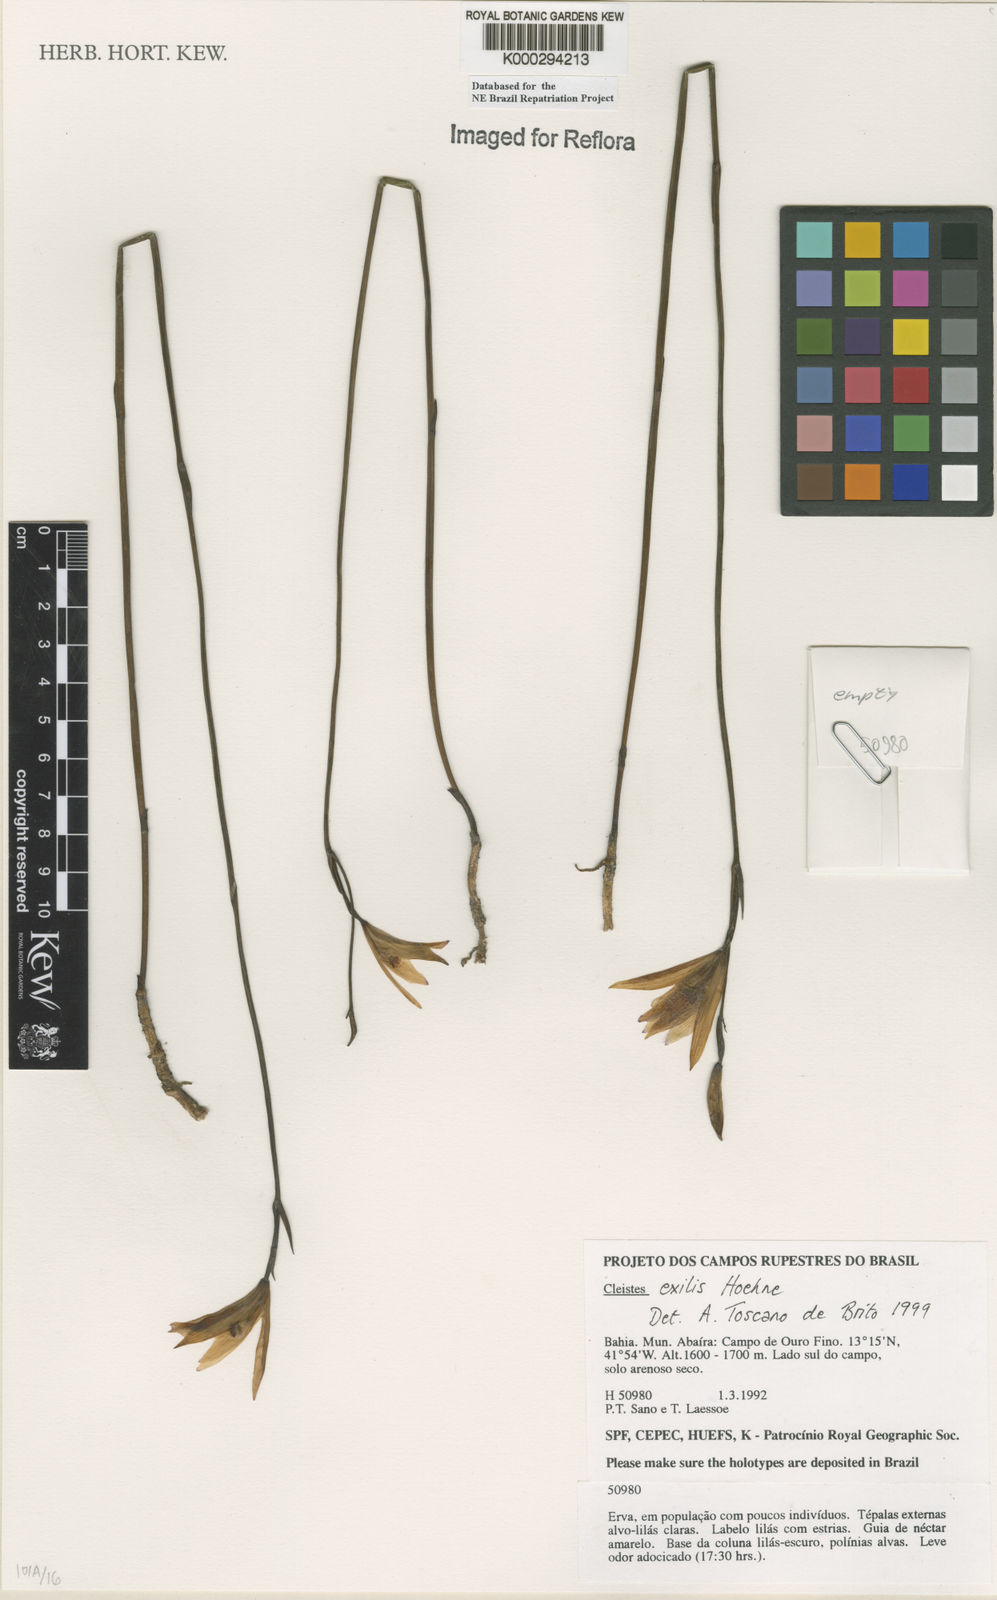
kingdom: Plantae
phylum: Tracheophyta
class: Liliopsida
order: Asparagales
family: Orchidaceae
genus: Cleistes
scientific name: Cleistes exilis
